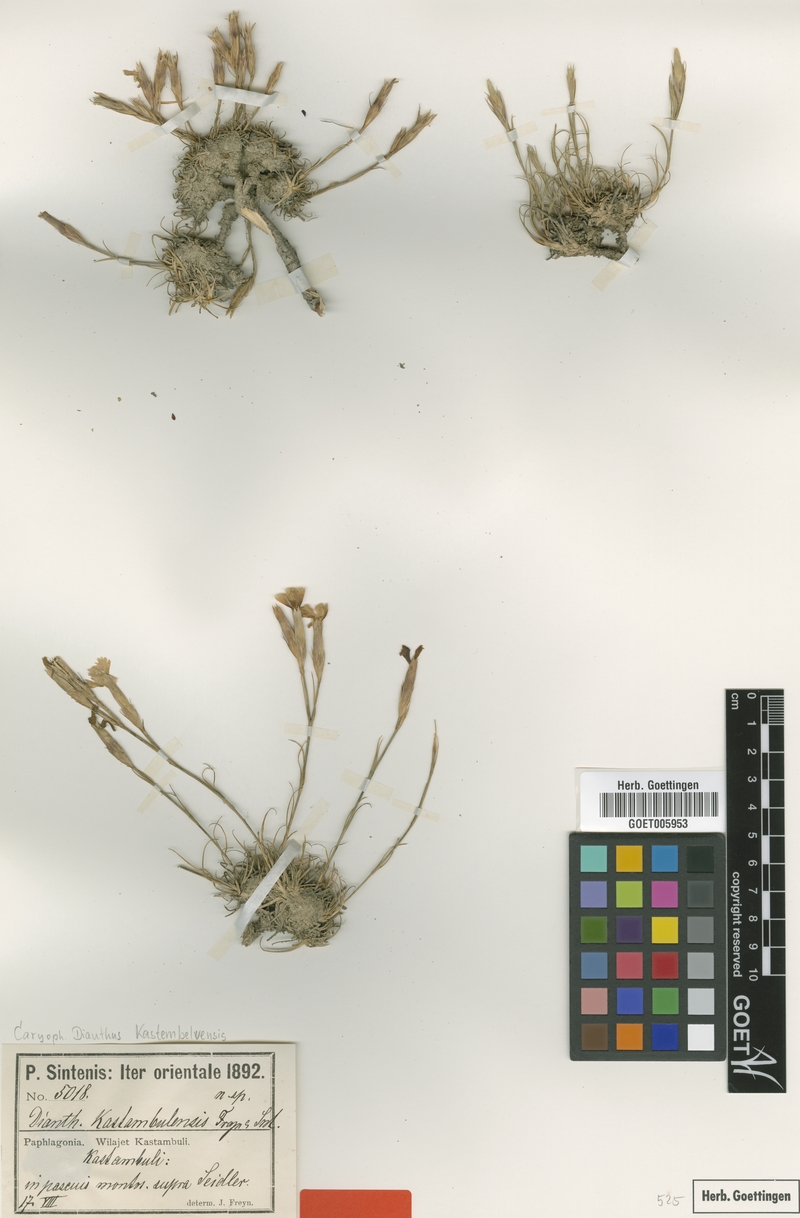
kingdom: Plantae
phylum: Tracheophyta
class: Magnoliopsida
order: Caryophyllales
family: Caryophyllaceae
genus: Dianthus
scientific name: Dianthus kastembeluensis
